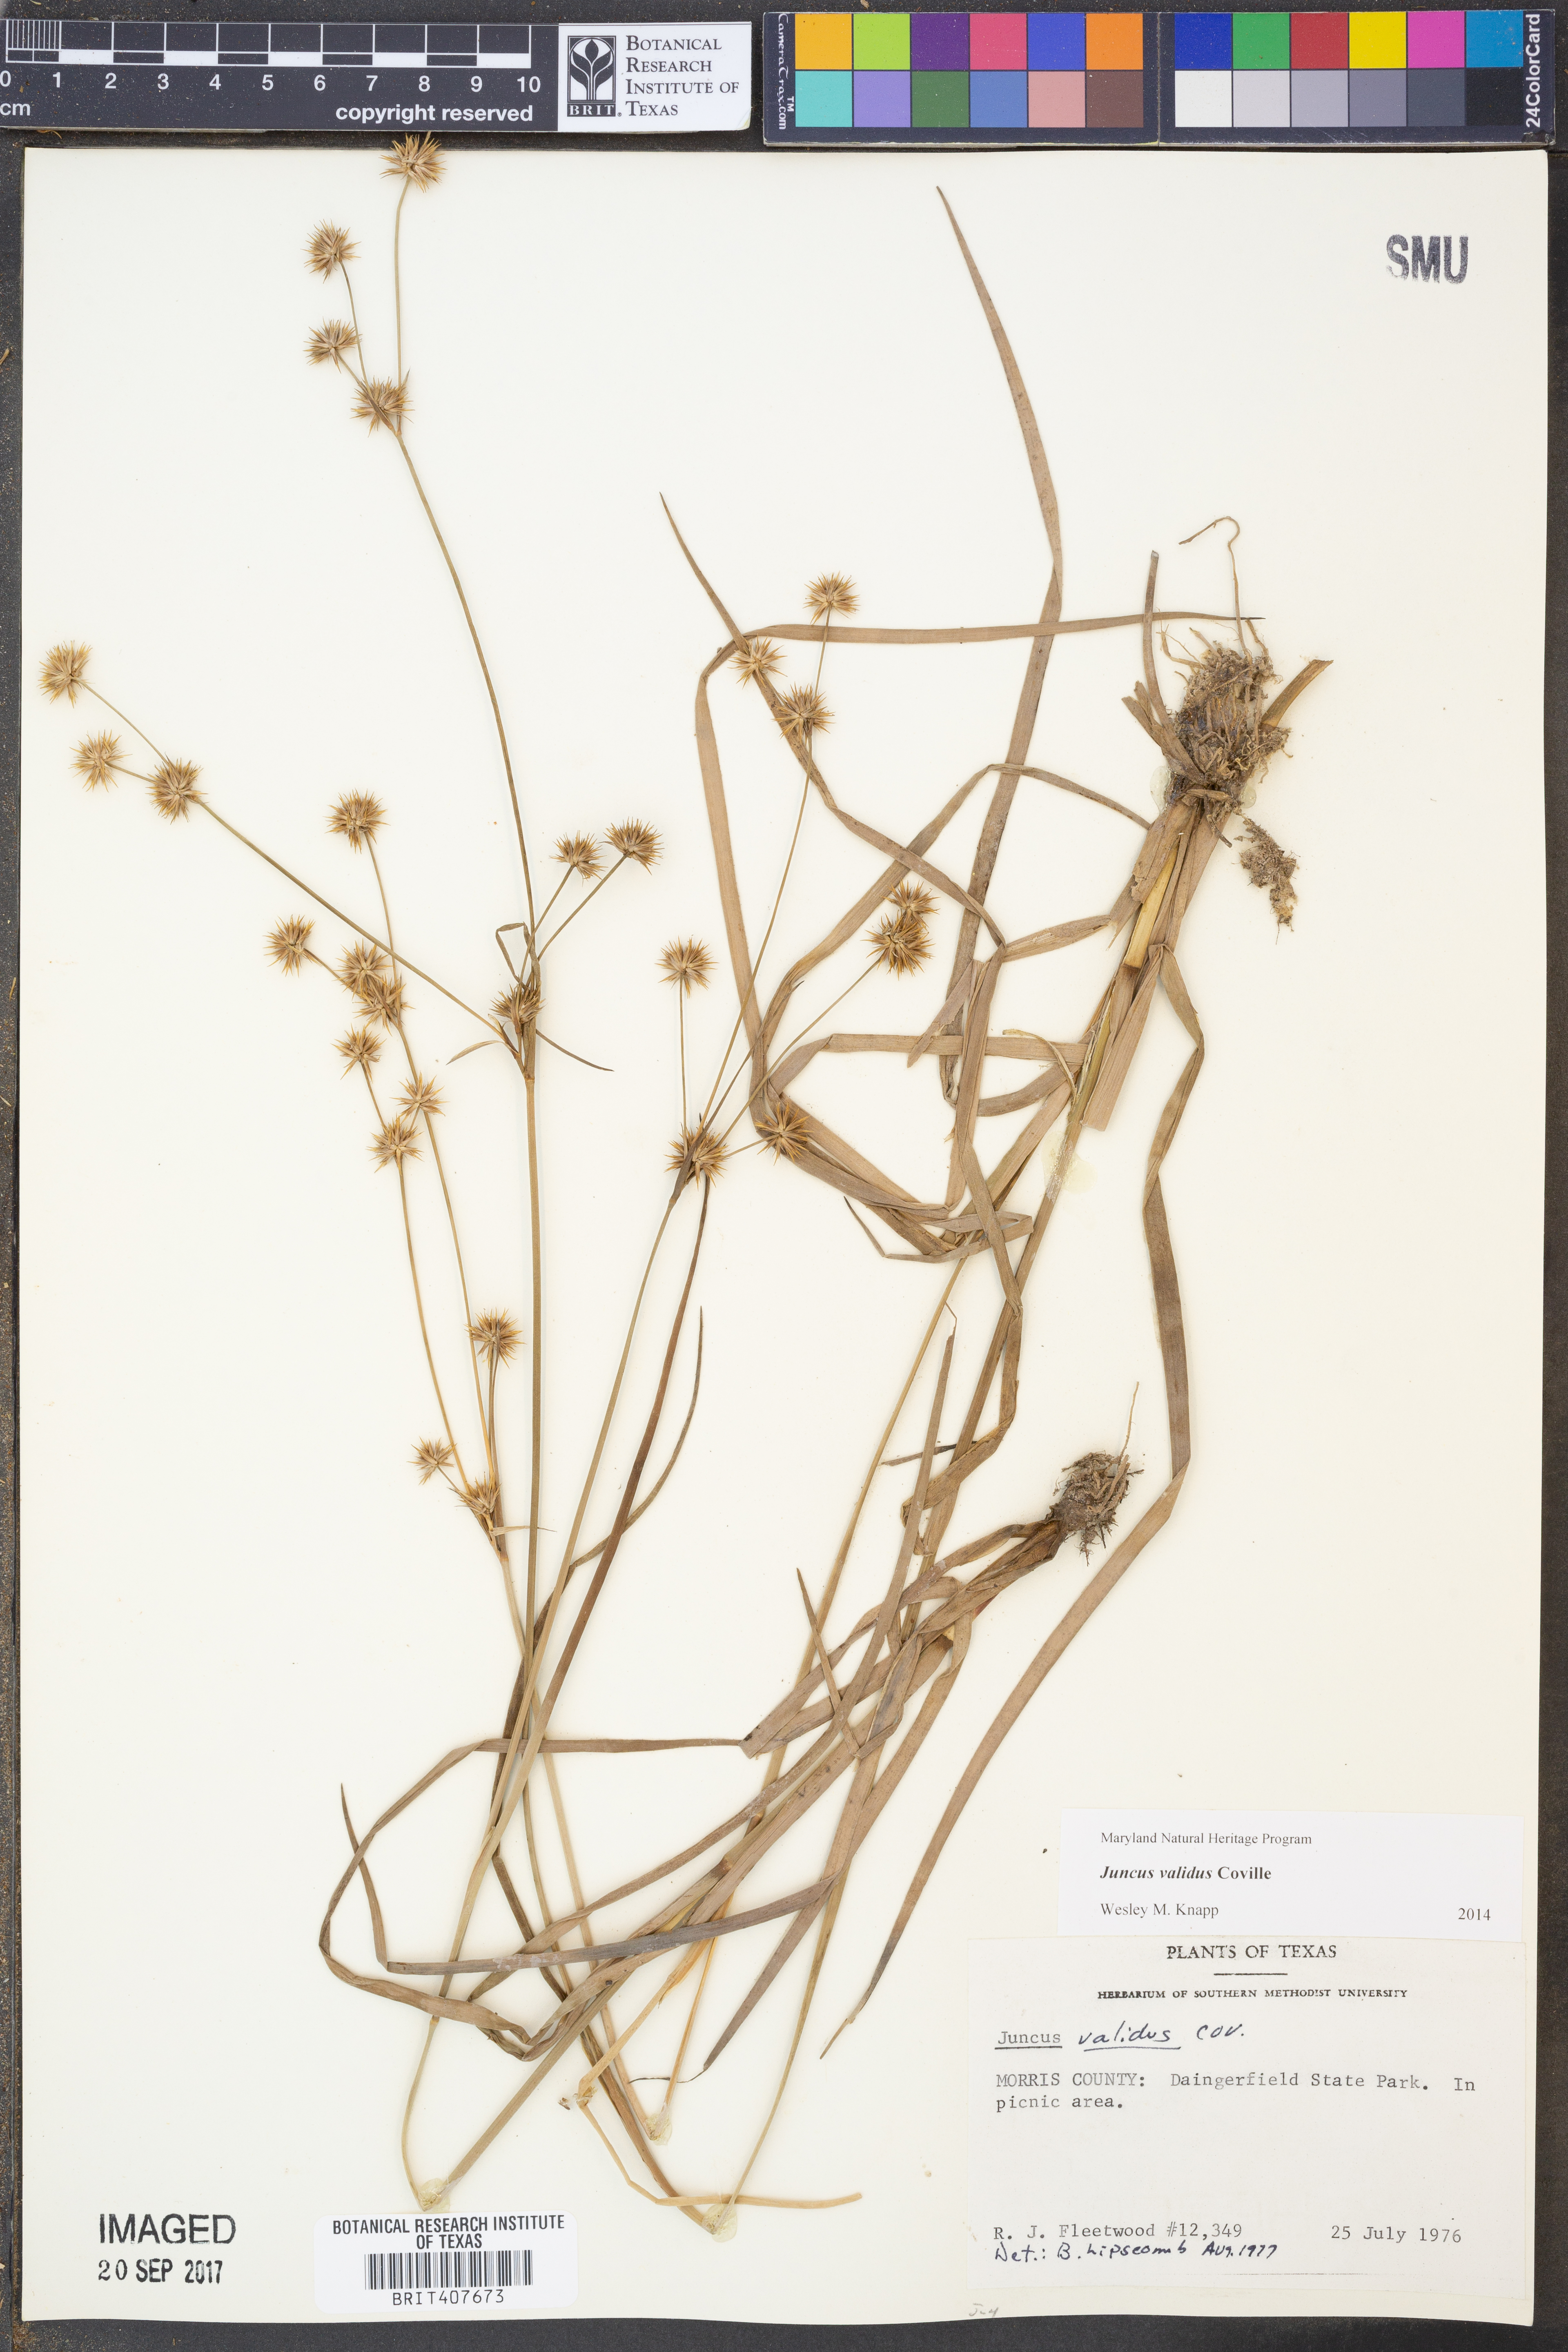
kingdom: Plantae
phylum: Tracheophyta
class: Liliopsida
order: Poales
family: Juncaceae
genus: Juncus
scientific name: Juncus validus
